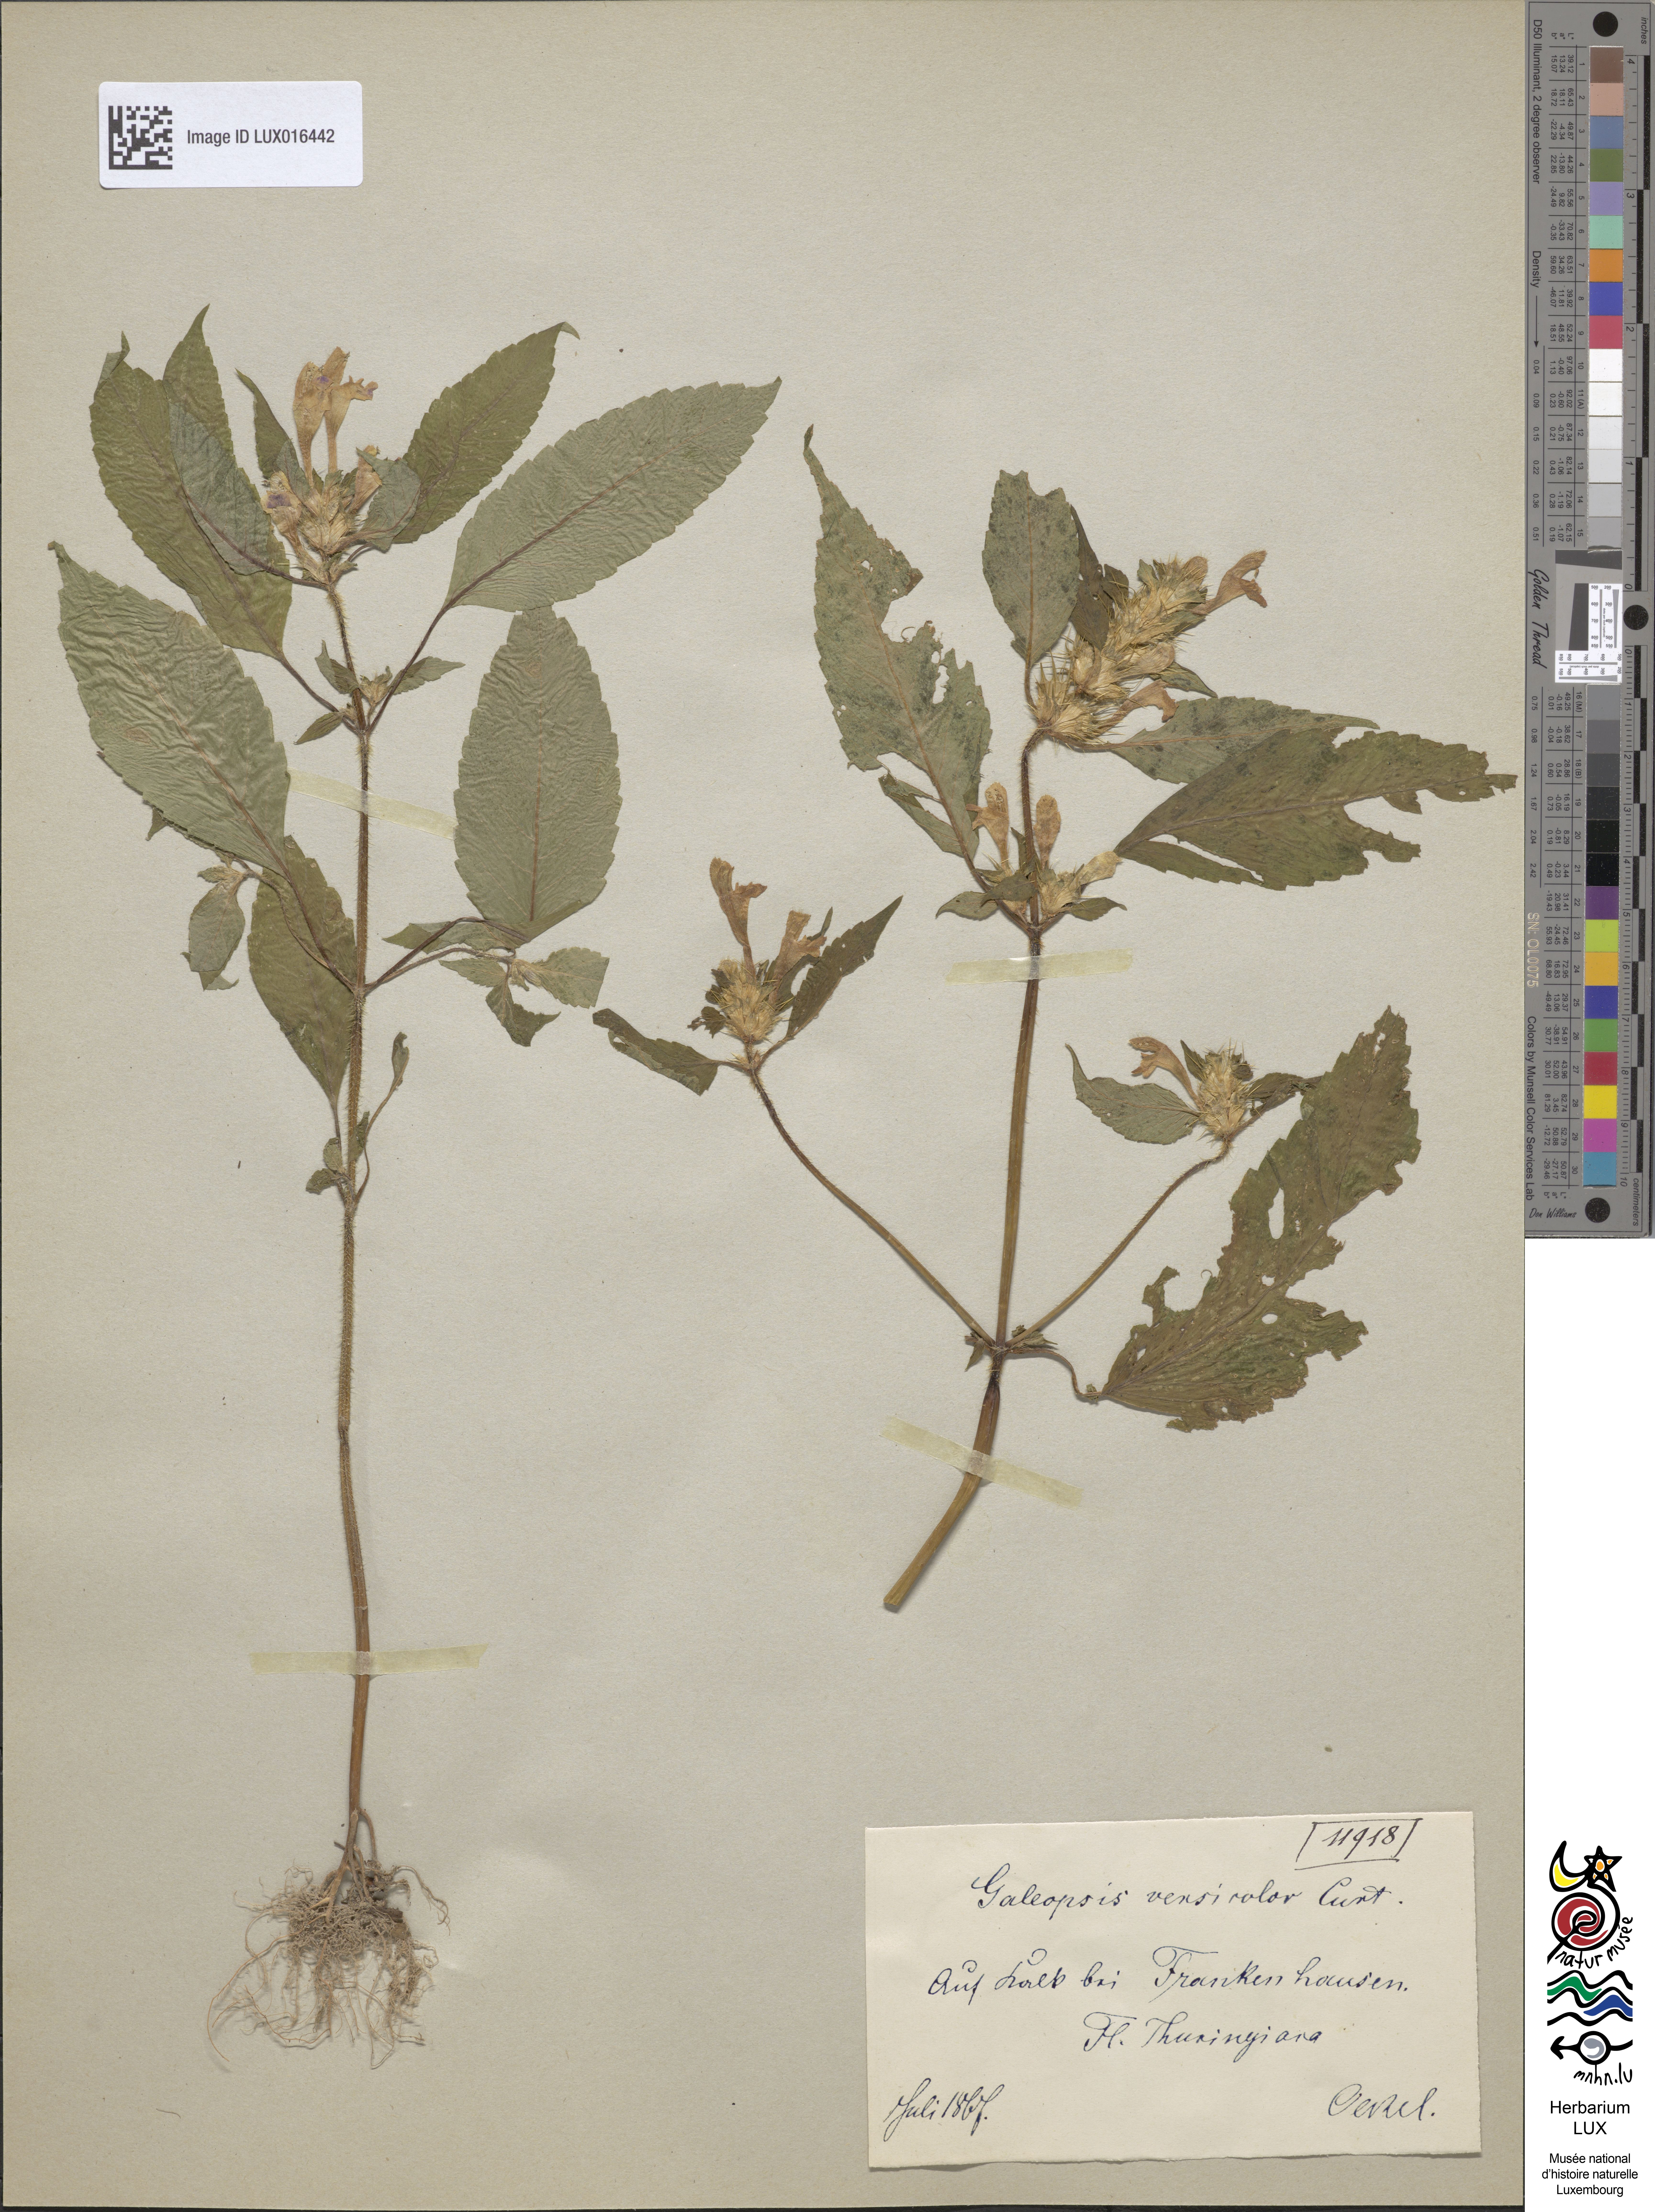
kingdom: Plantae
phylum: Tracheophyta
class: Magnoliopsida
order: Lamiales
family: Lamiaceae
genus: Galeopsis
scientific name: Galeopsis speciosa
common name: Large-flowered hemp-nettle
